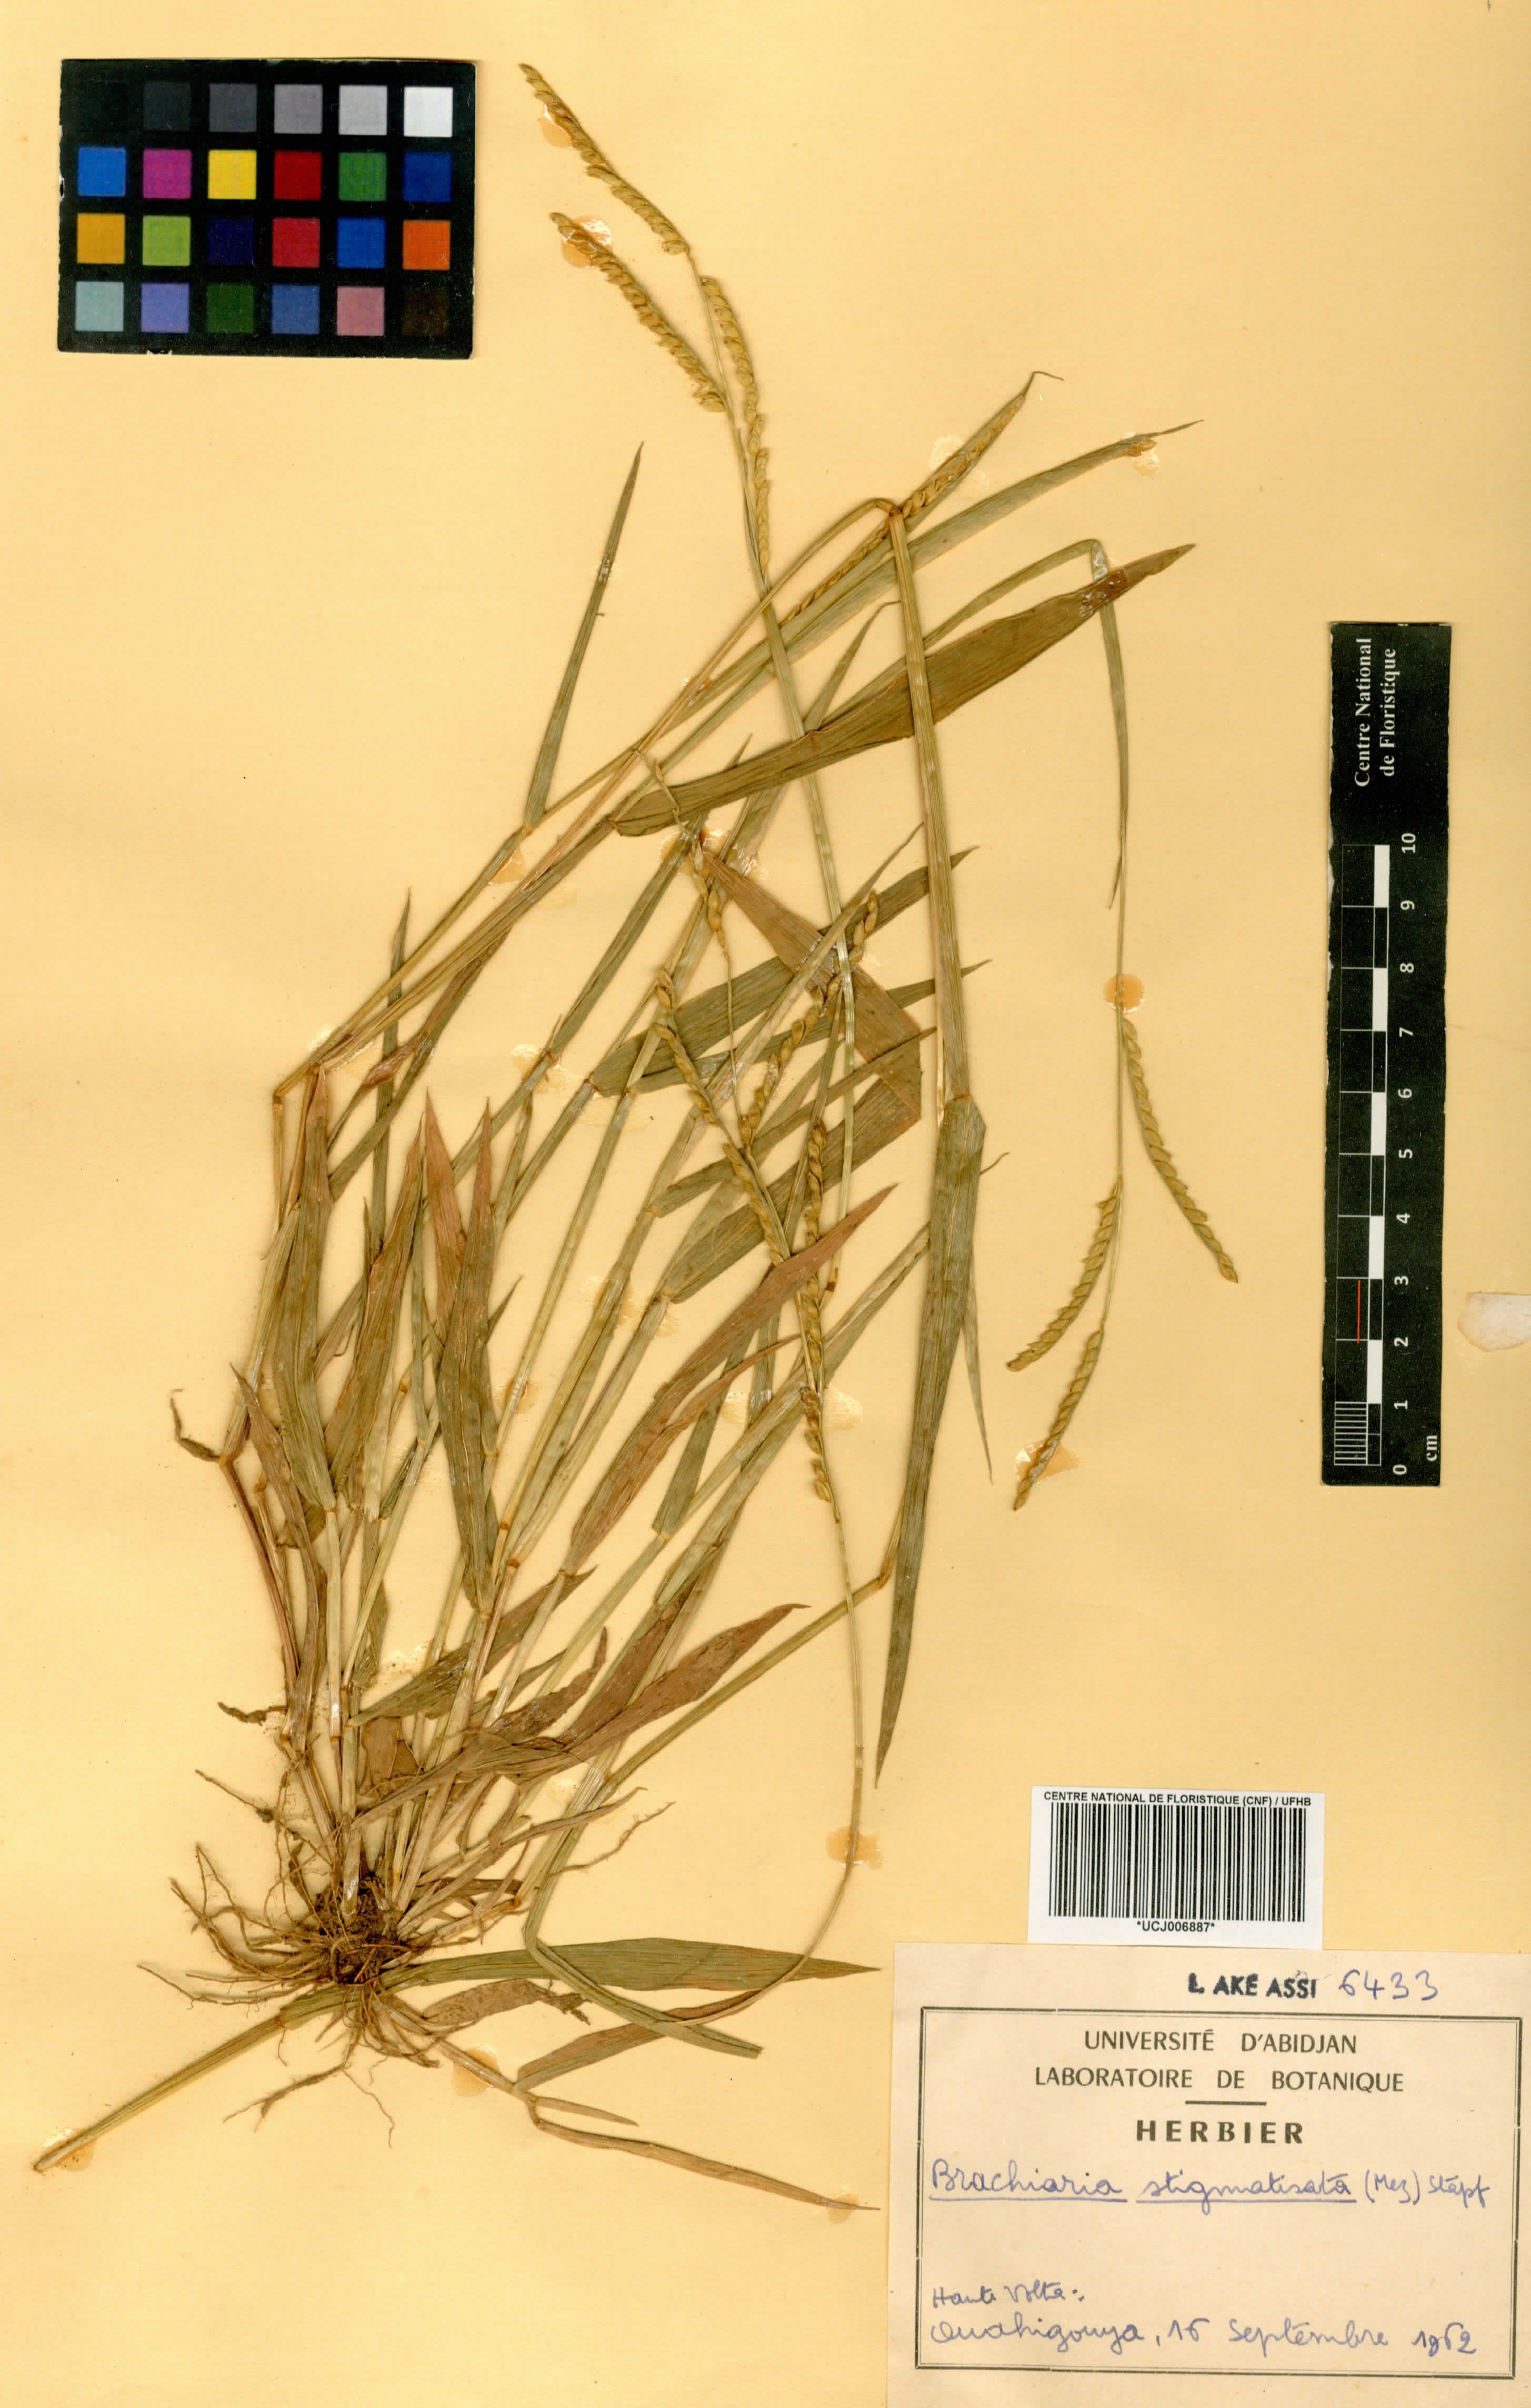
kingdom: Plantae
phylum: Tracheophyta
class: Liliopsida
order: Poales
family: Poaceae
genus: Urochloa
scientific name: Urochloa stigmatisata
